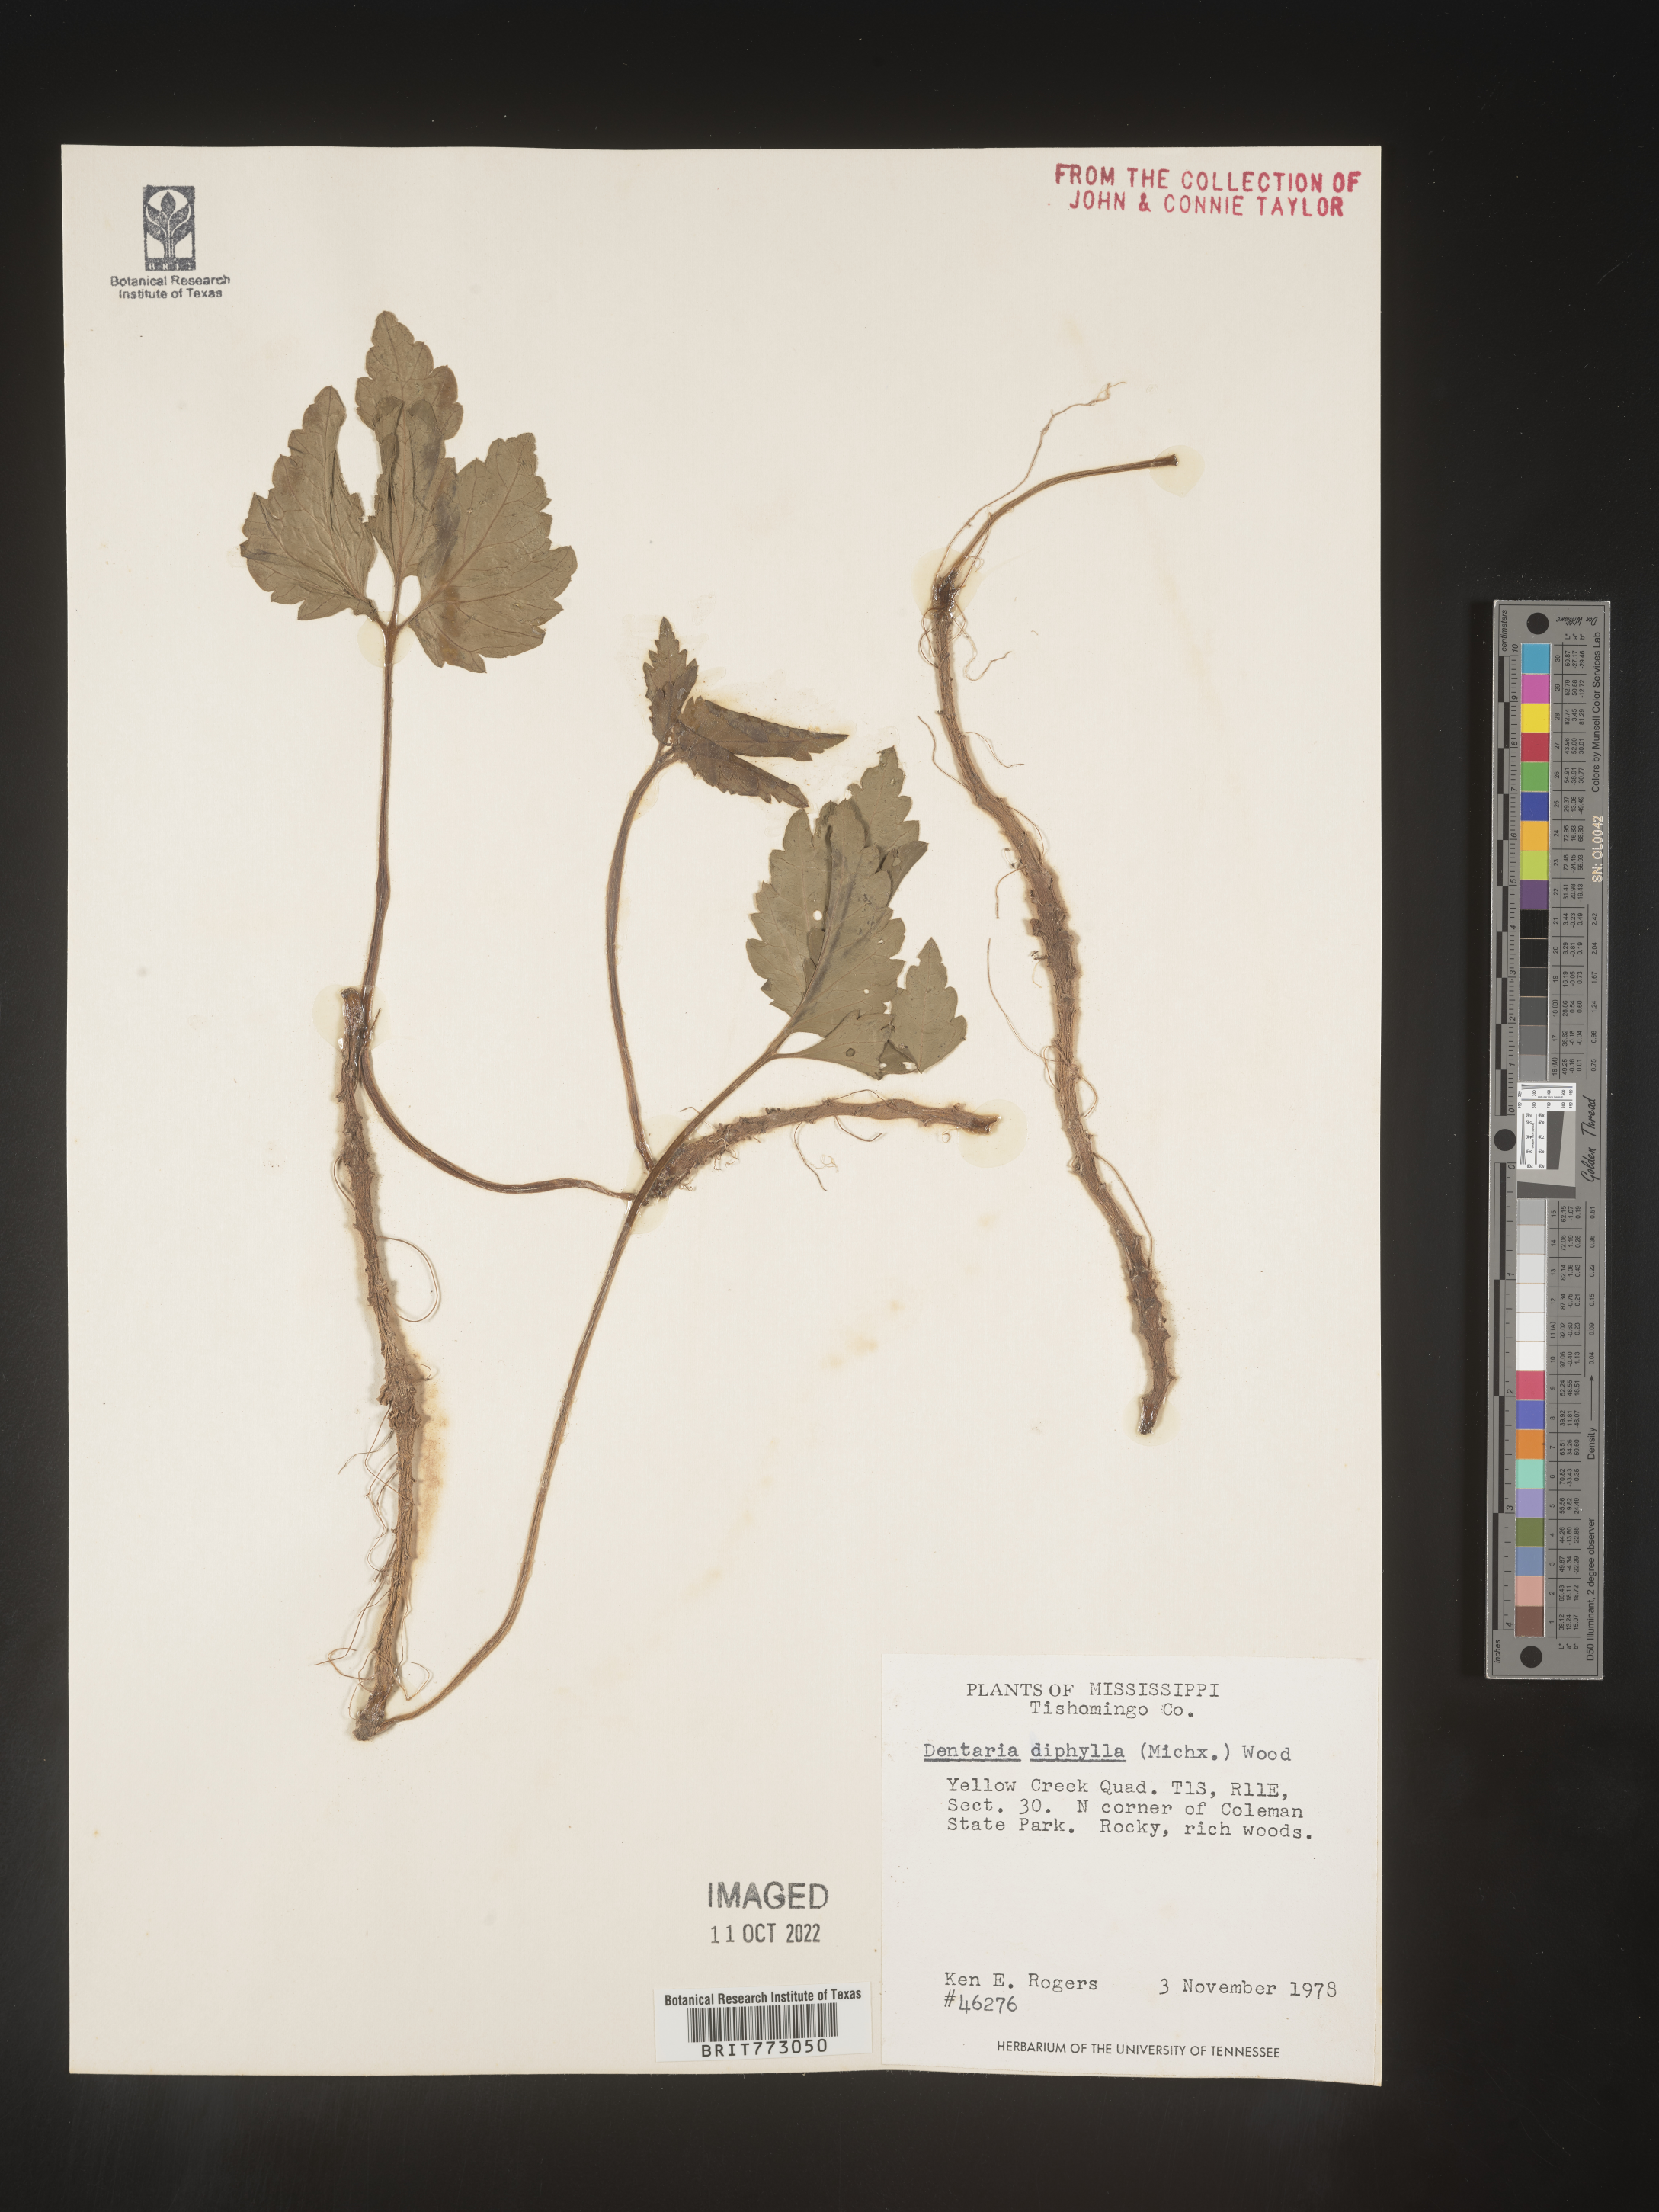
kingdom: Plantae
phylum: Tracheophyta
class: Magnoliopsida
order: Brassicales
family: Brassicaceae
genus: Cardamine
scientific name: Cardamine diphylla
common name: Broad-leaved toothwort
